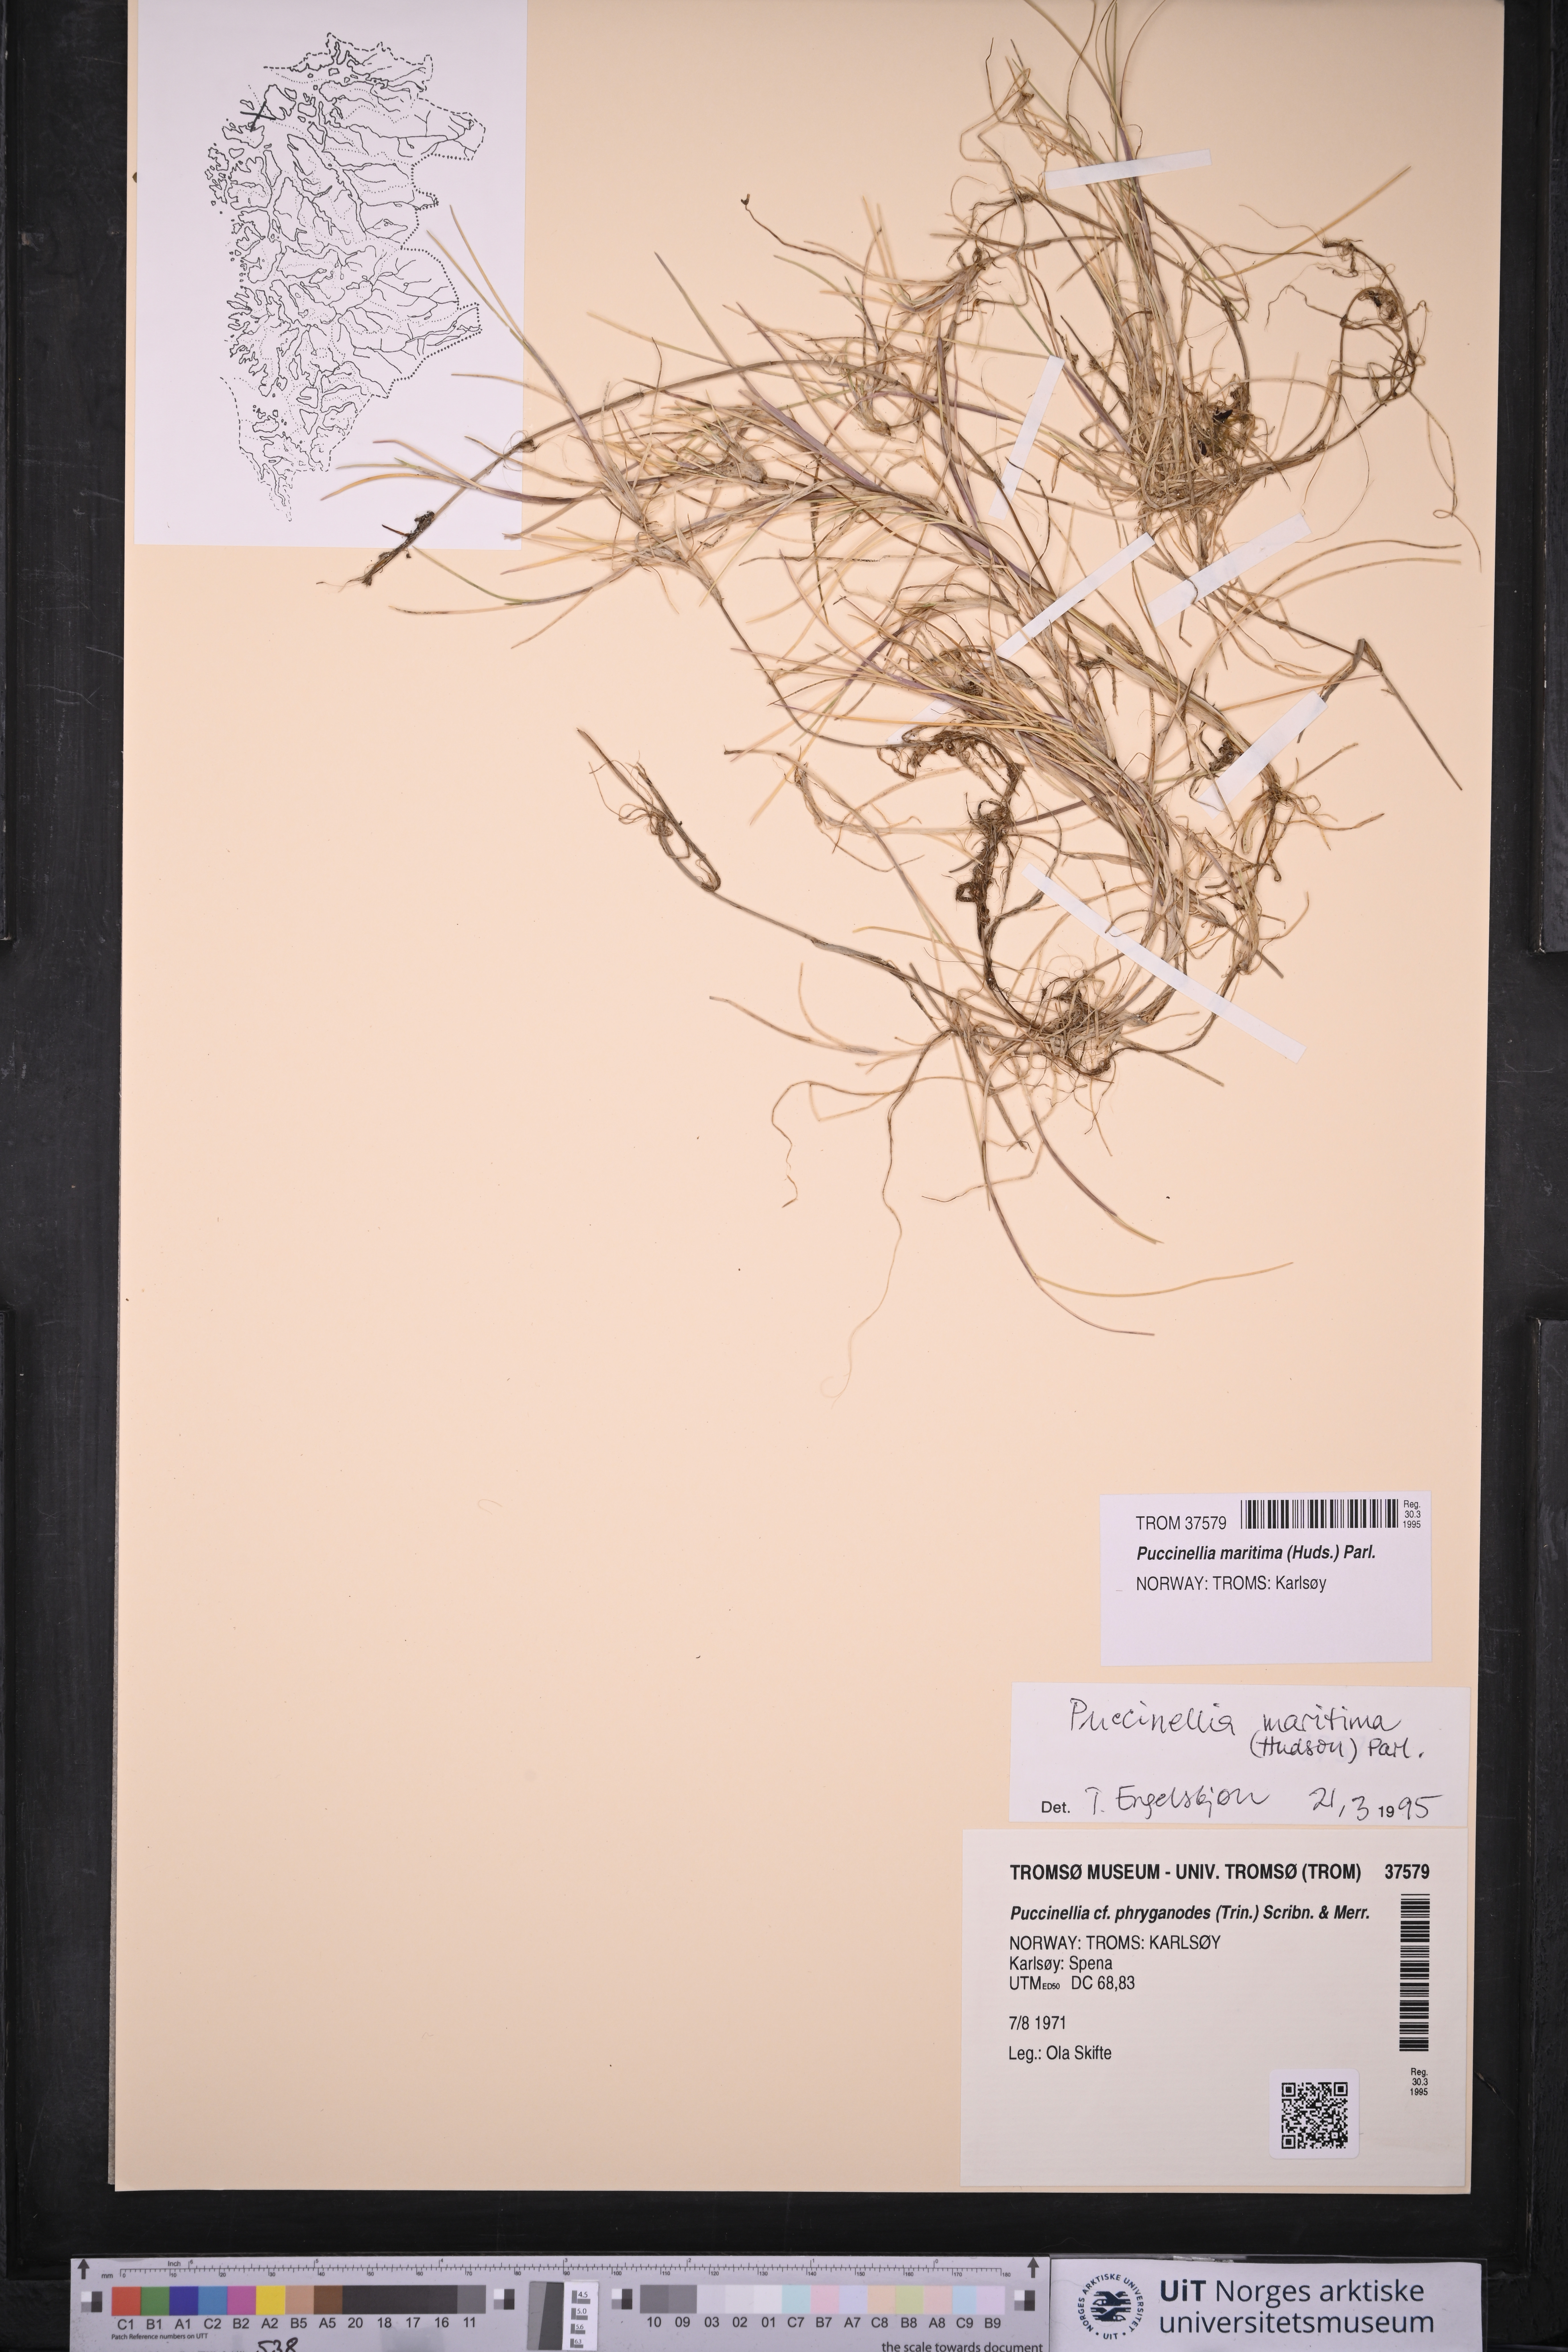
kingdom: Plantae
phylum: Tracheophyta
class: Liliopsida
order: Poales
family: Poaceae
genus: Puccinellia
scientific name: Puccinellia maritima
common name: Common saltmarsh grass
